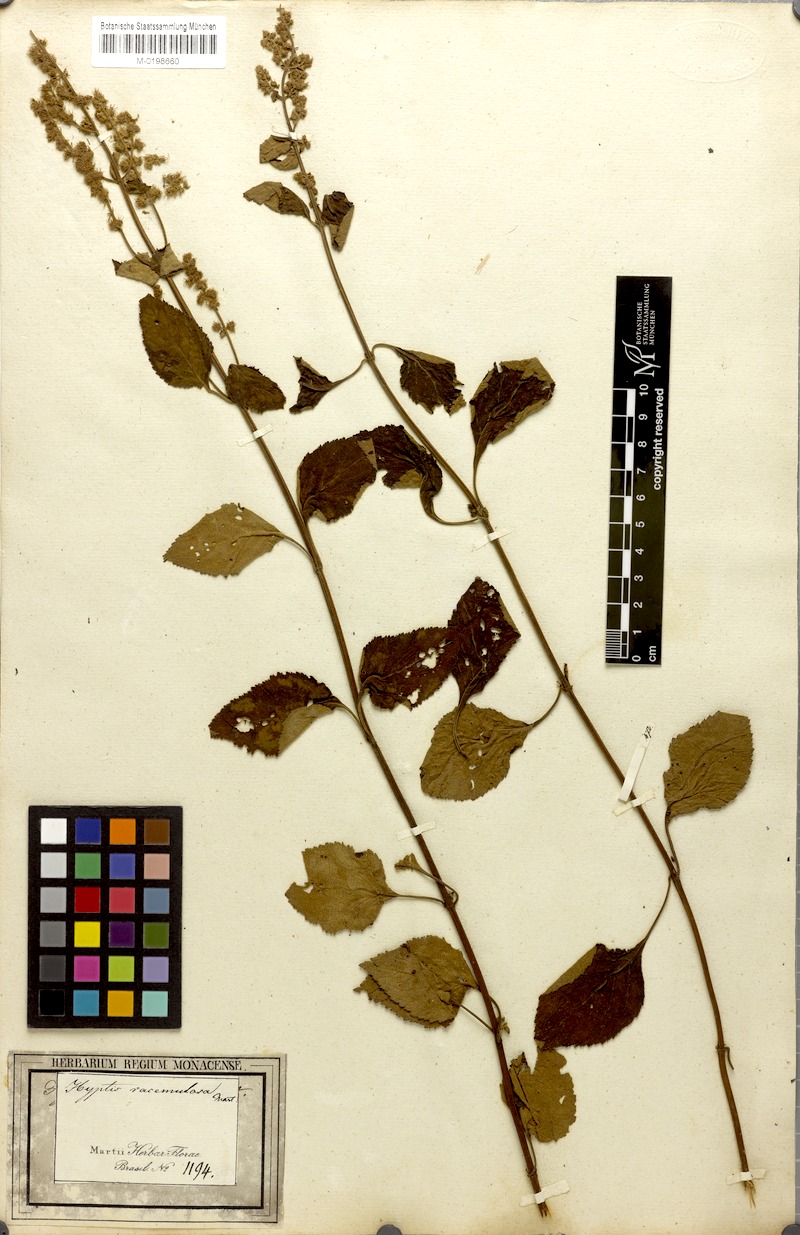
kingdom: Plantae
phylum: Tracheophyta
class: Magnoliopsida
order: Lamiales
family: Lamiaceae
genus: Cantinoa
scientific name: Cantinoa racemulosa
